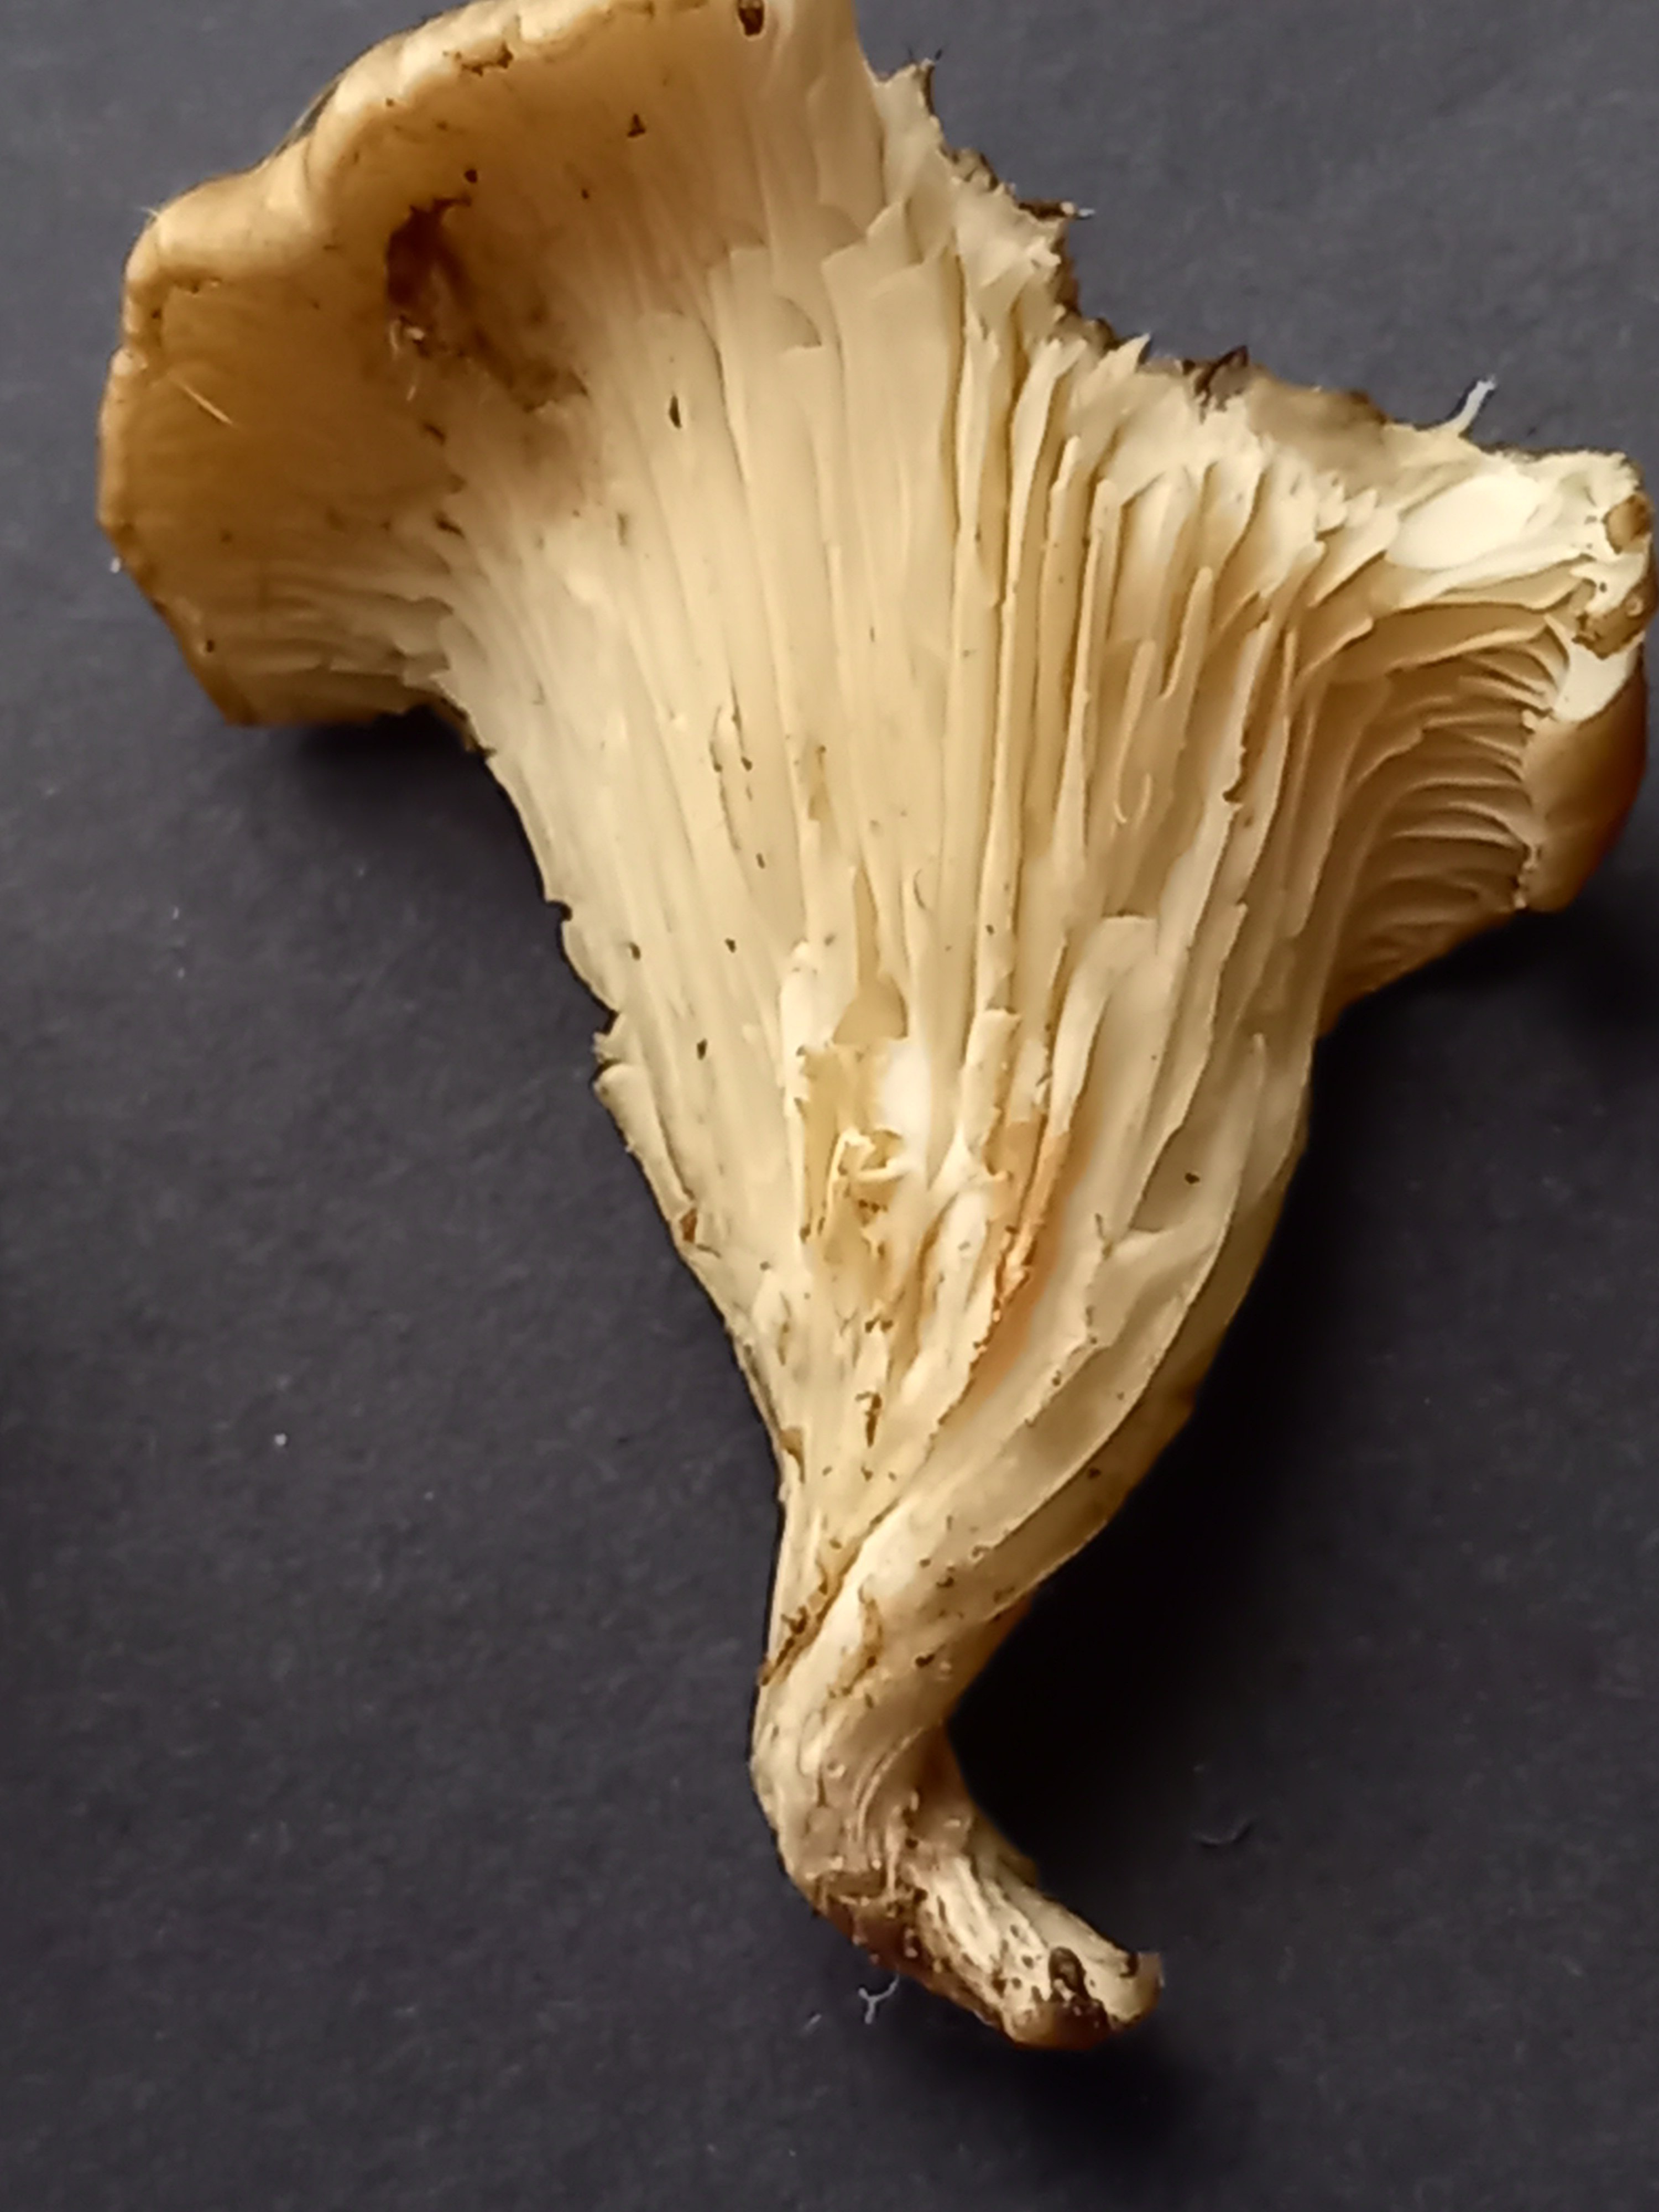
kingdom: Fungi
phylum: Basidiomycota
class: Agaricomycetes
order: Agaricales
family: Pleurotaceae
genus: Hohenbuehelia
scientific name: Hohenbuehelia bonii
